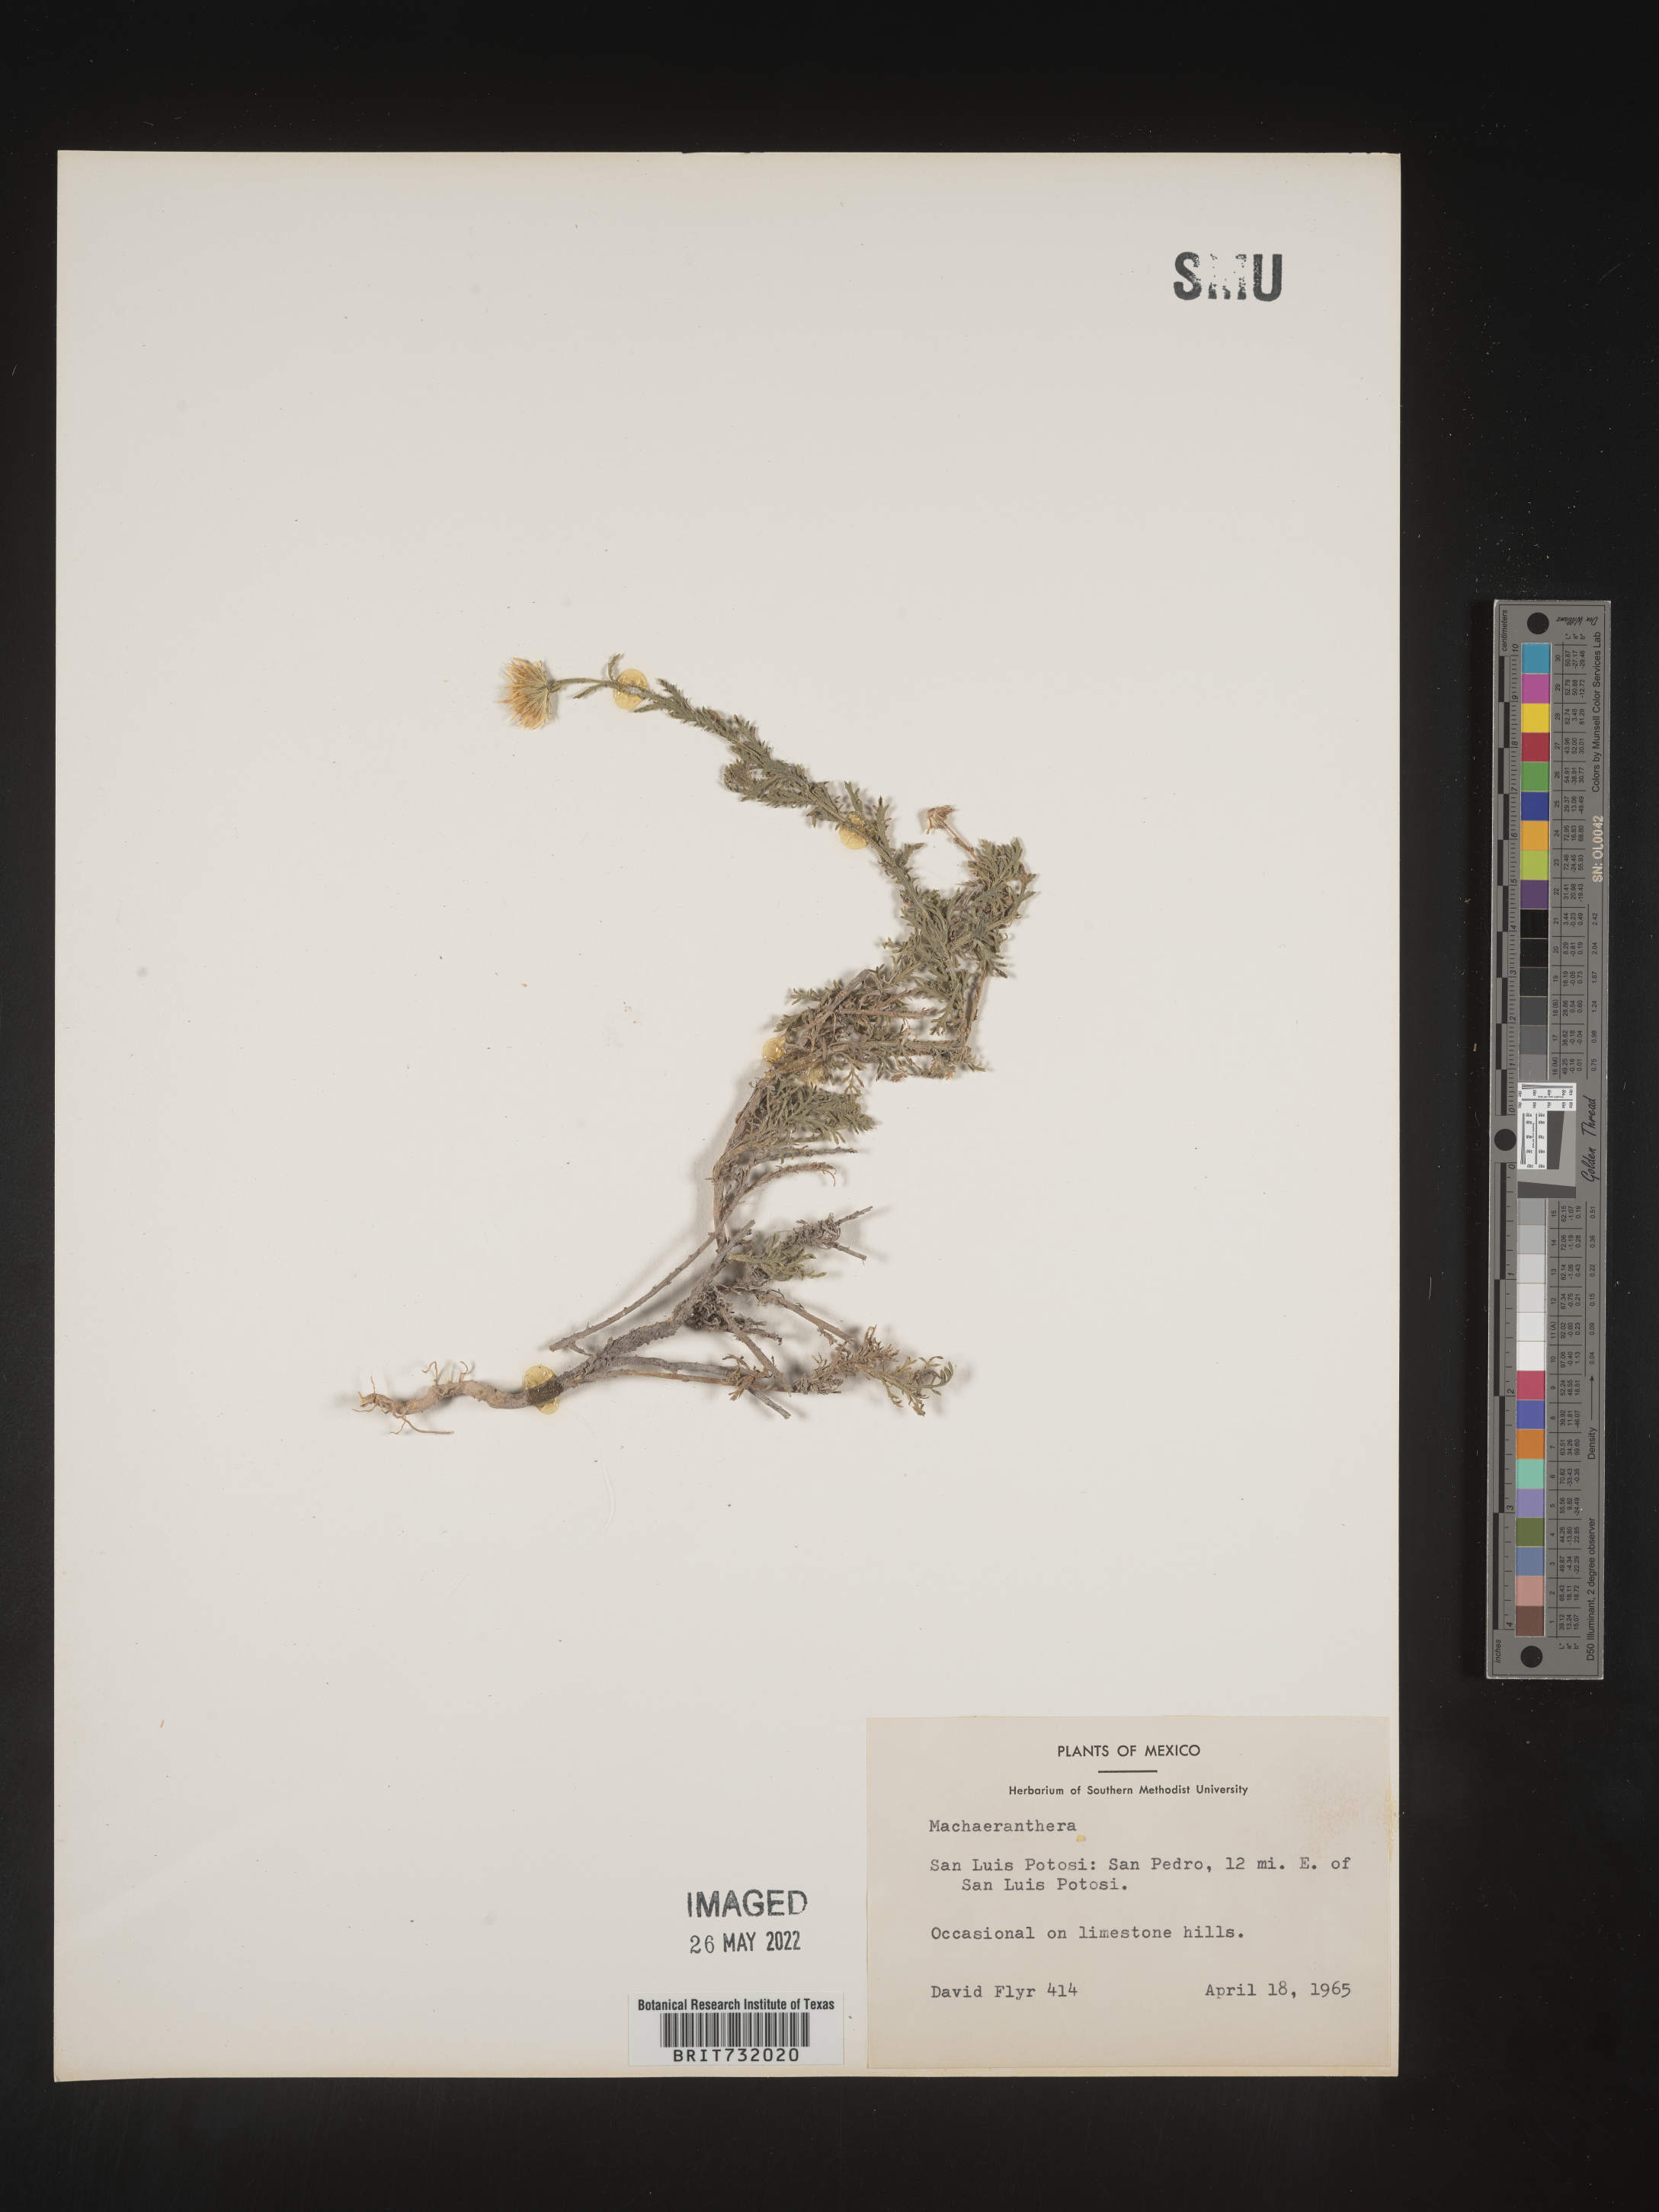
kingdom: Plantae
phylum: Tracheophyta
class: Magnoliopsida
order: Asterales
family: Asteraceae
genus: Machaeranthera
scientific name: Machaeranthera
